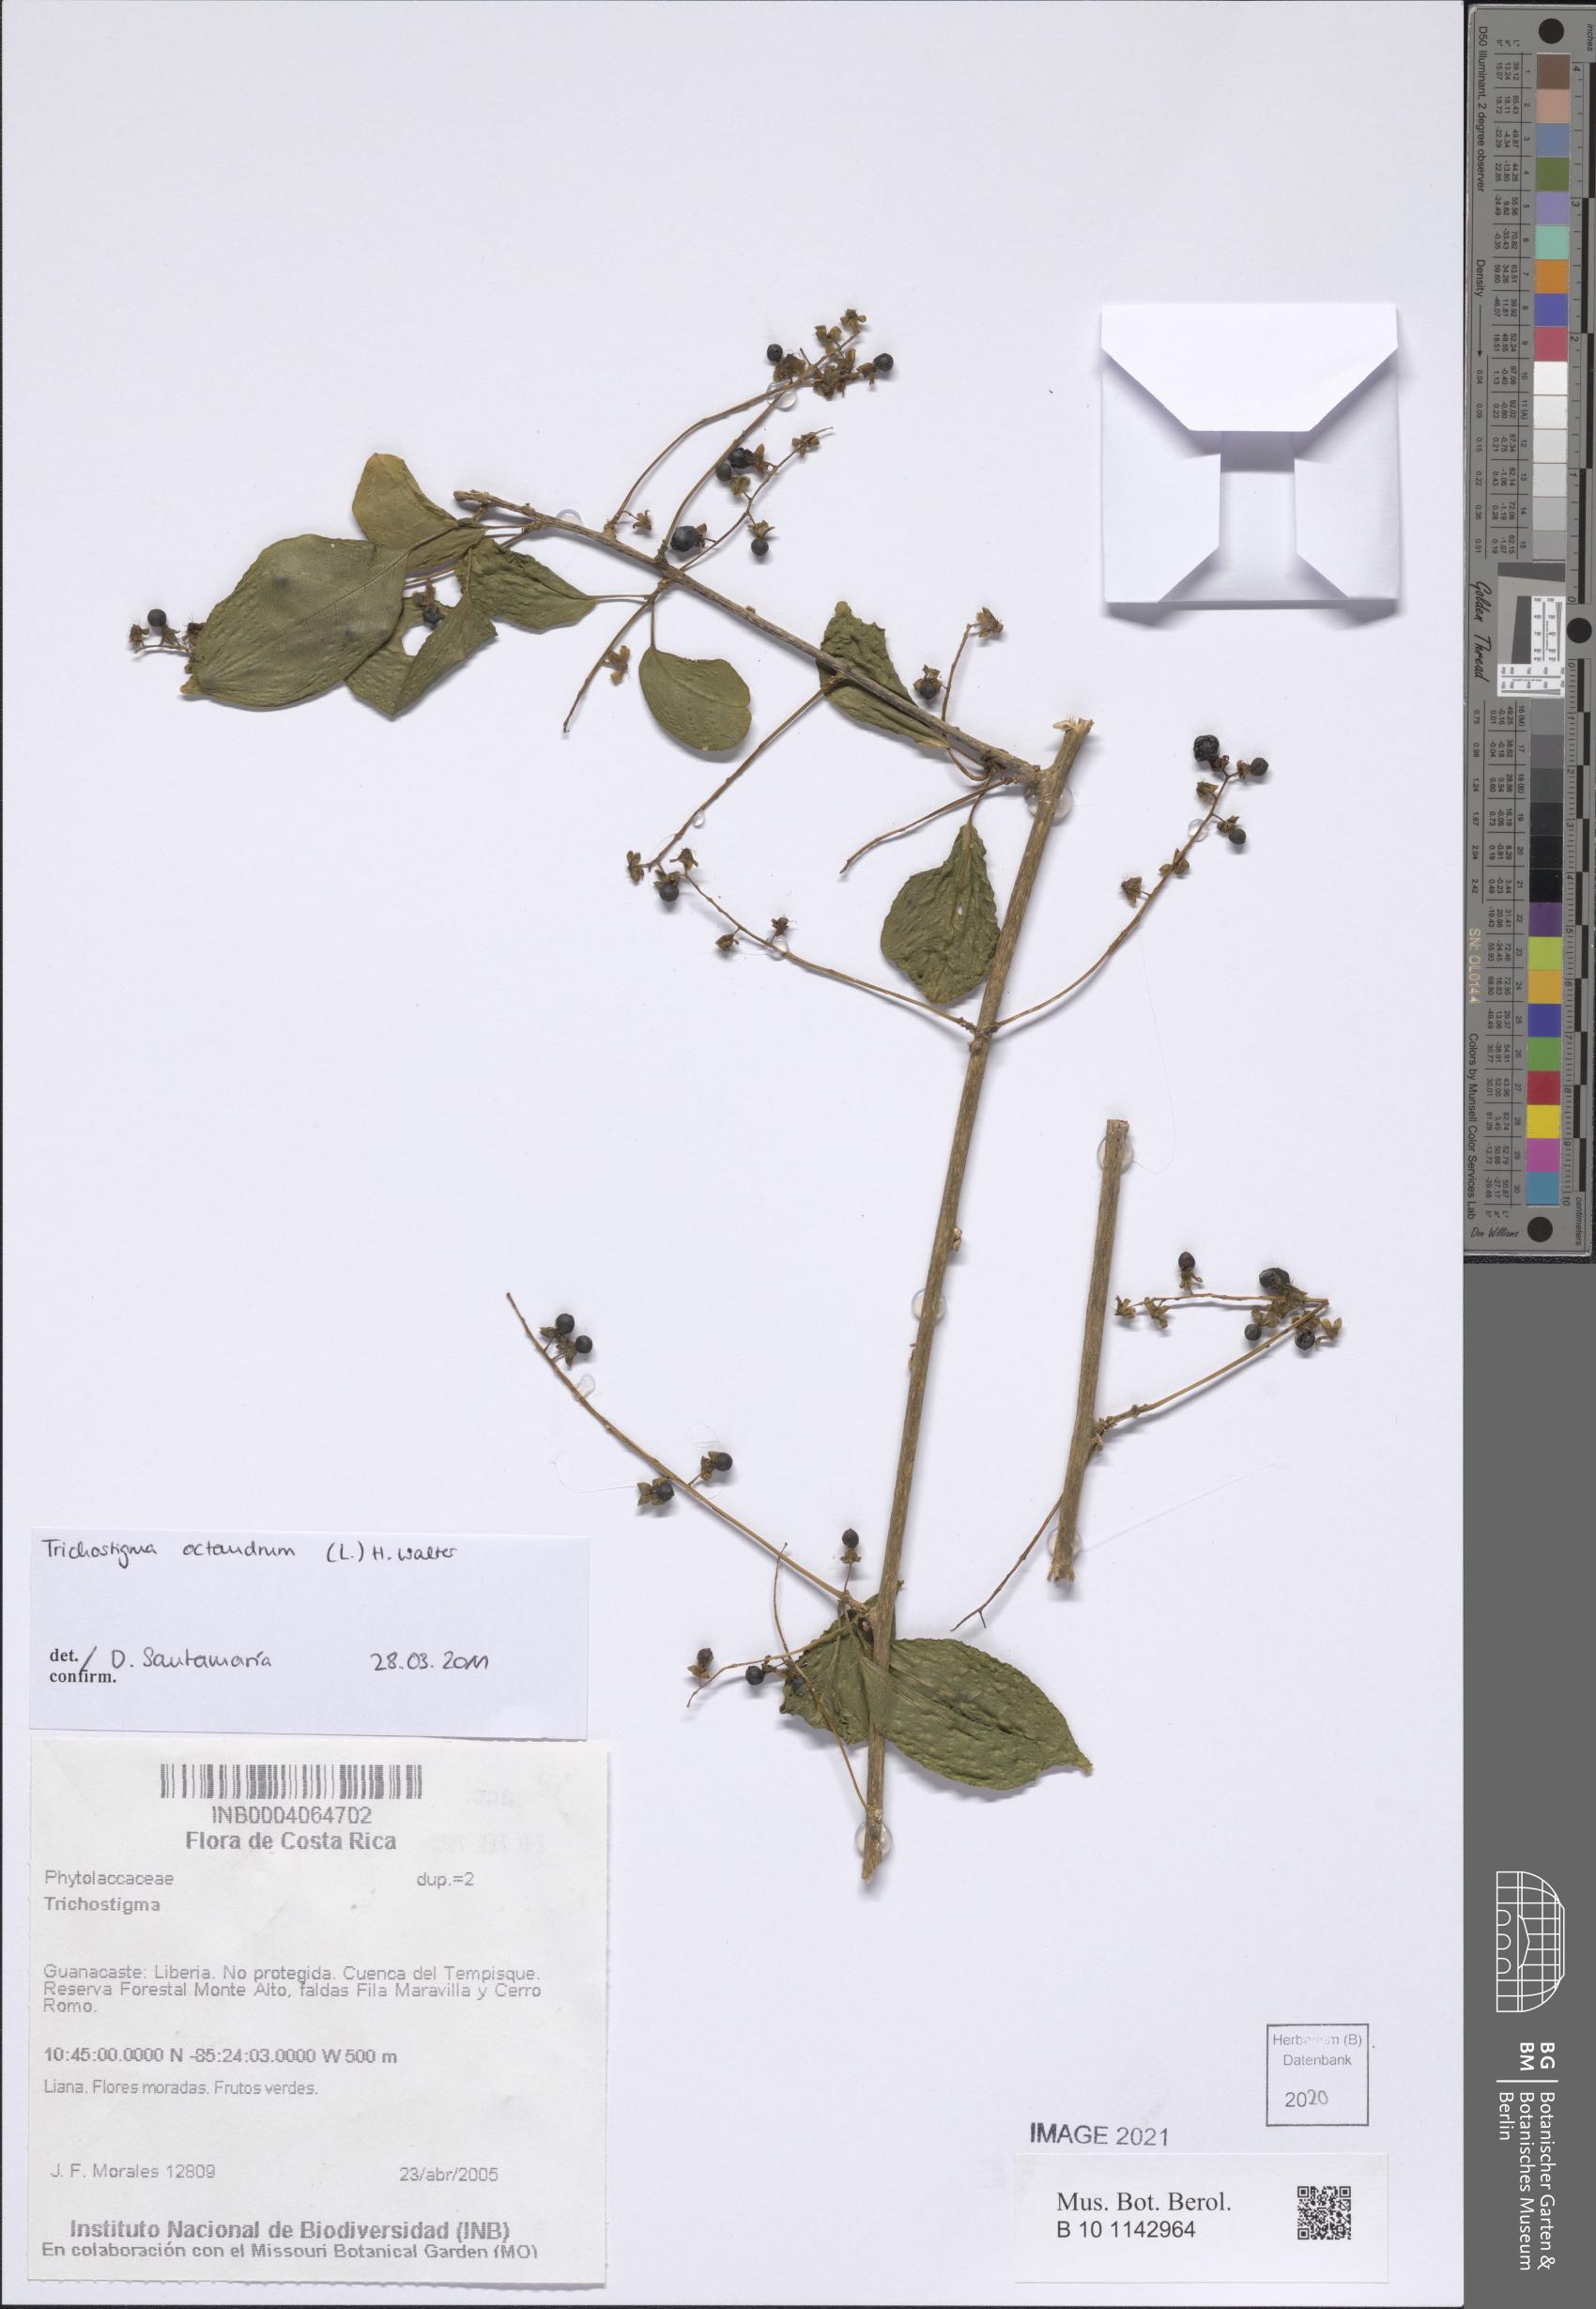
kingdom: Plantae
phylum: Tracheophyta
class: Magnoliopsida
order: Caryophyllales
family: Phytolaccaceae
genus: Trichostigma
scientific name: Trichostigma octandrum
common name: Basket wiss
